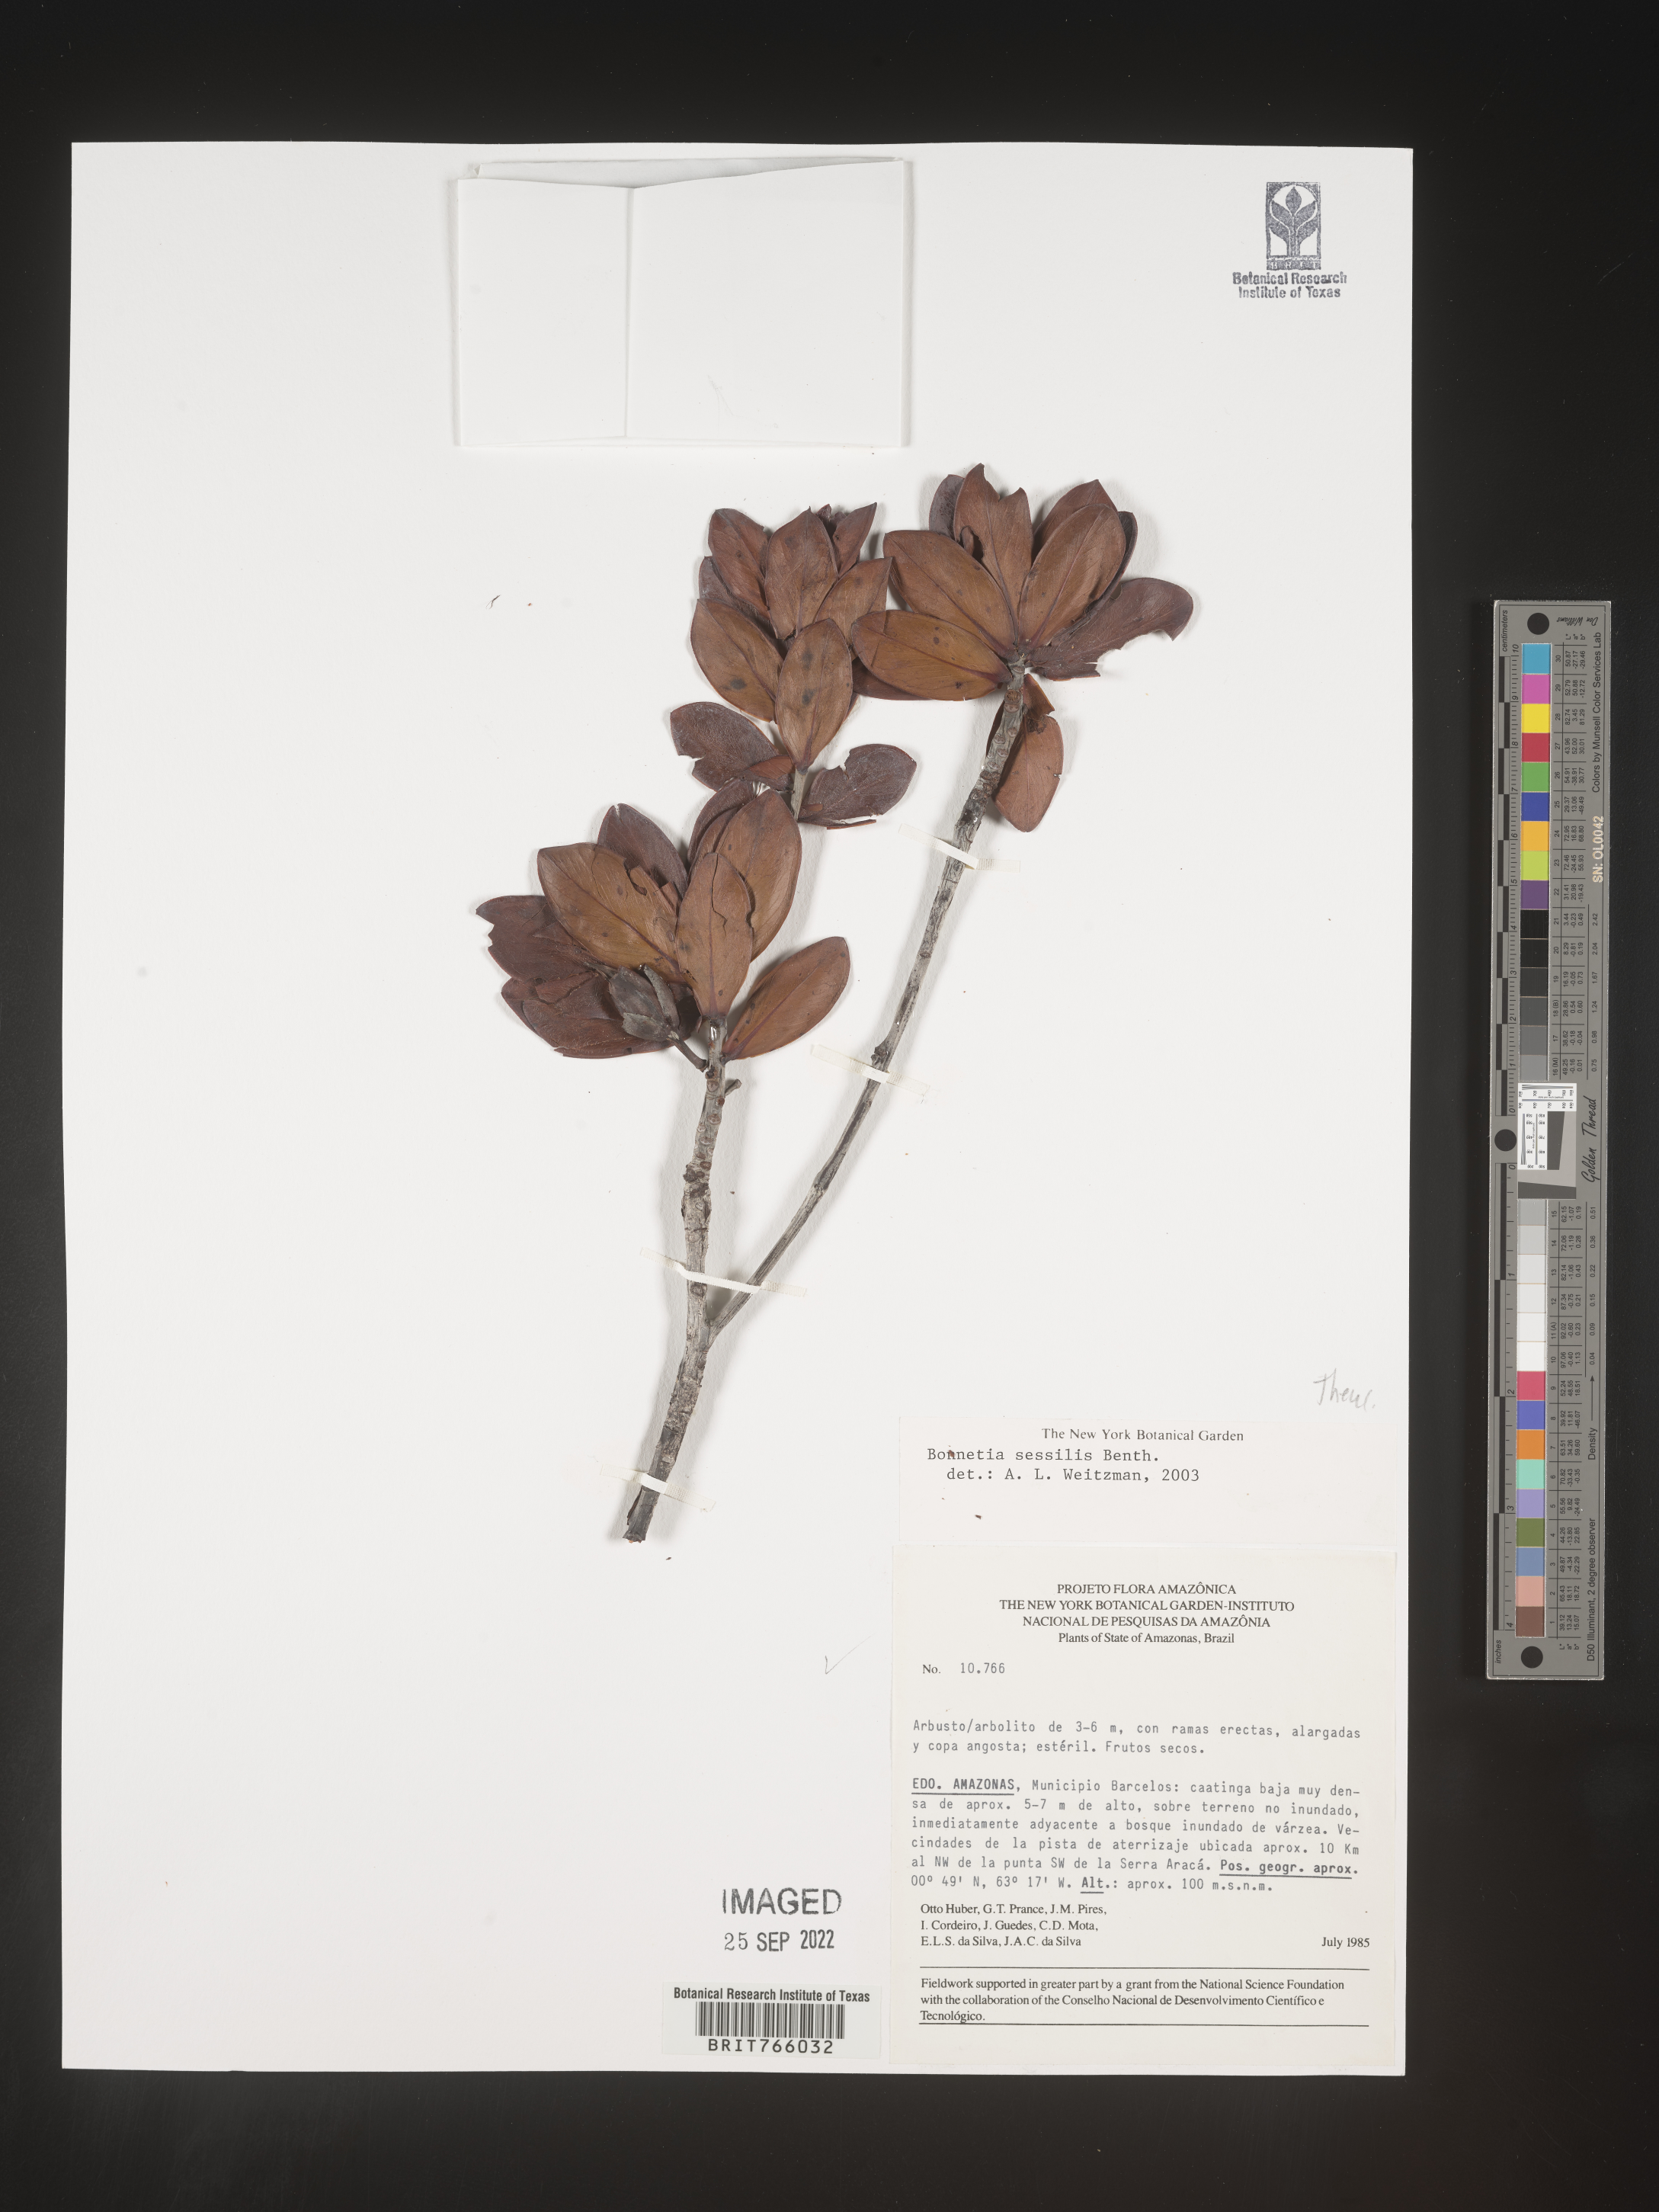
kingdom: Plantae
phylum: Tracheophyta
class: Magnoliopsida
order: Malpighiales
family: Bonnetiaceae
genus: Bonnetia
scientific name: Bonnetia
